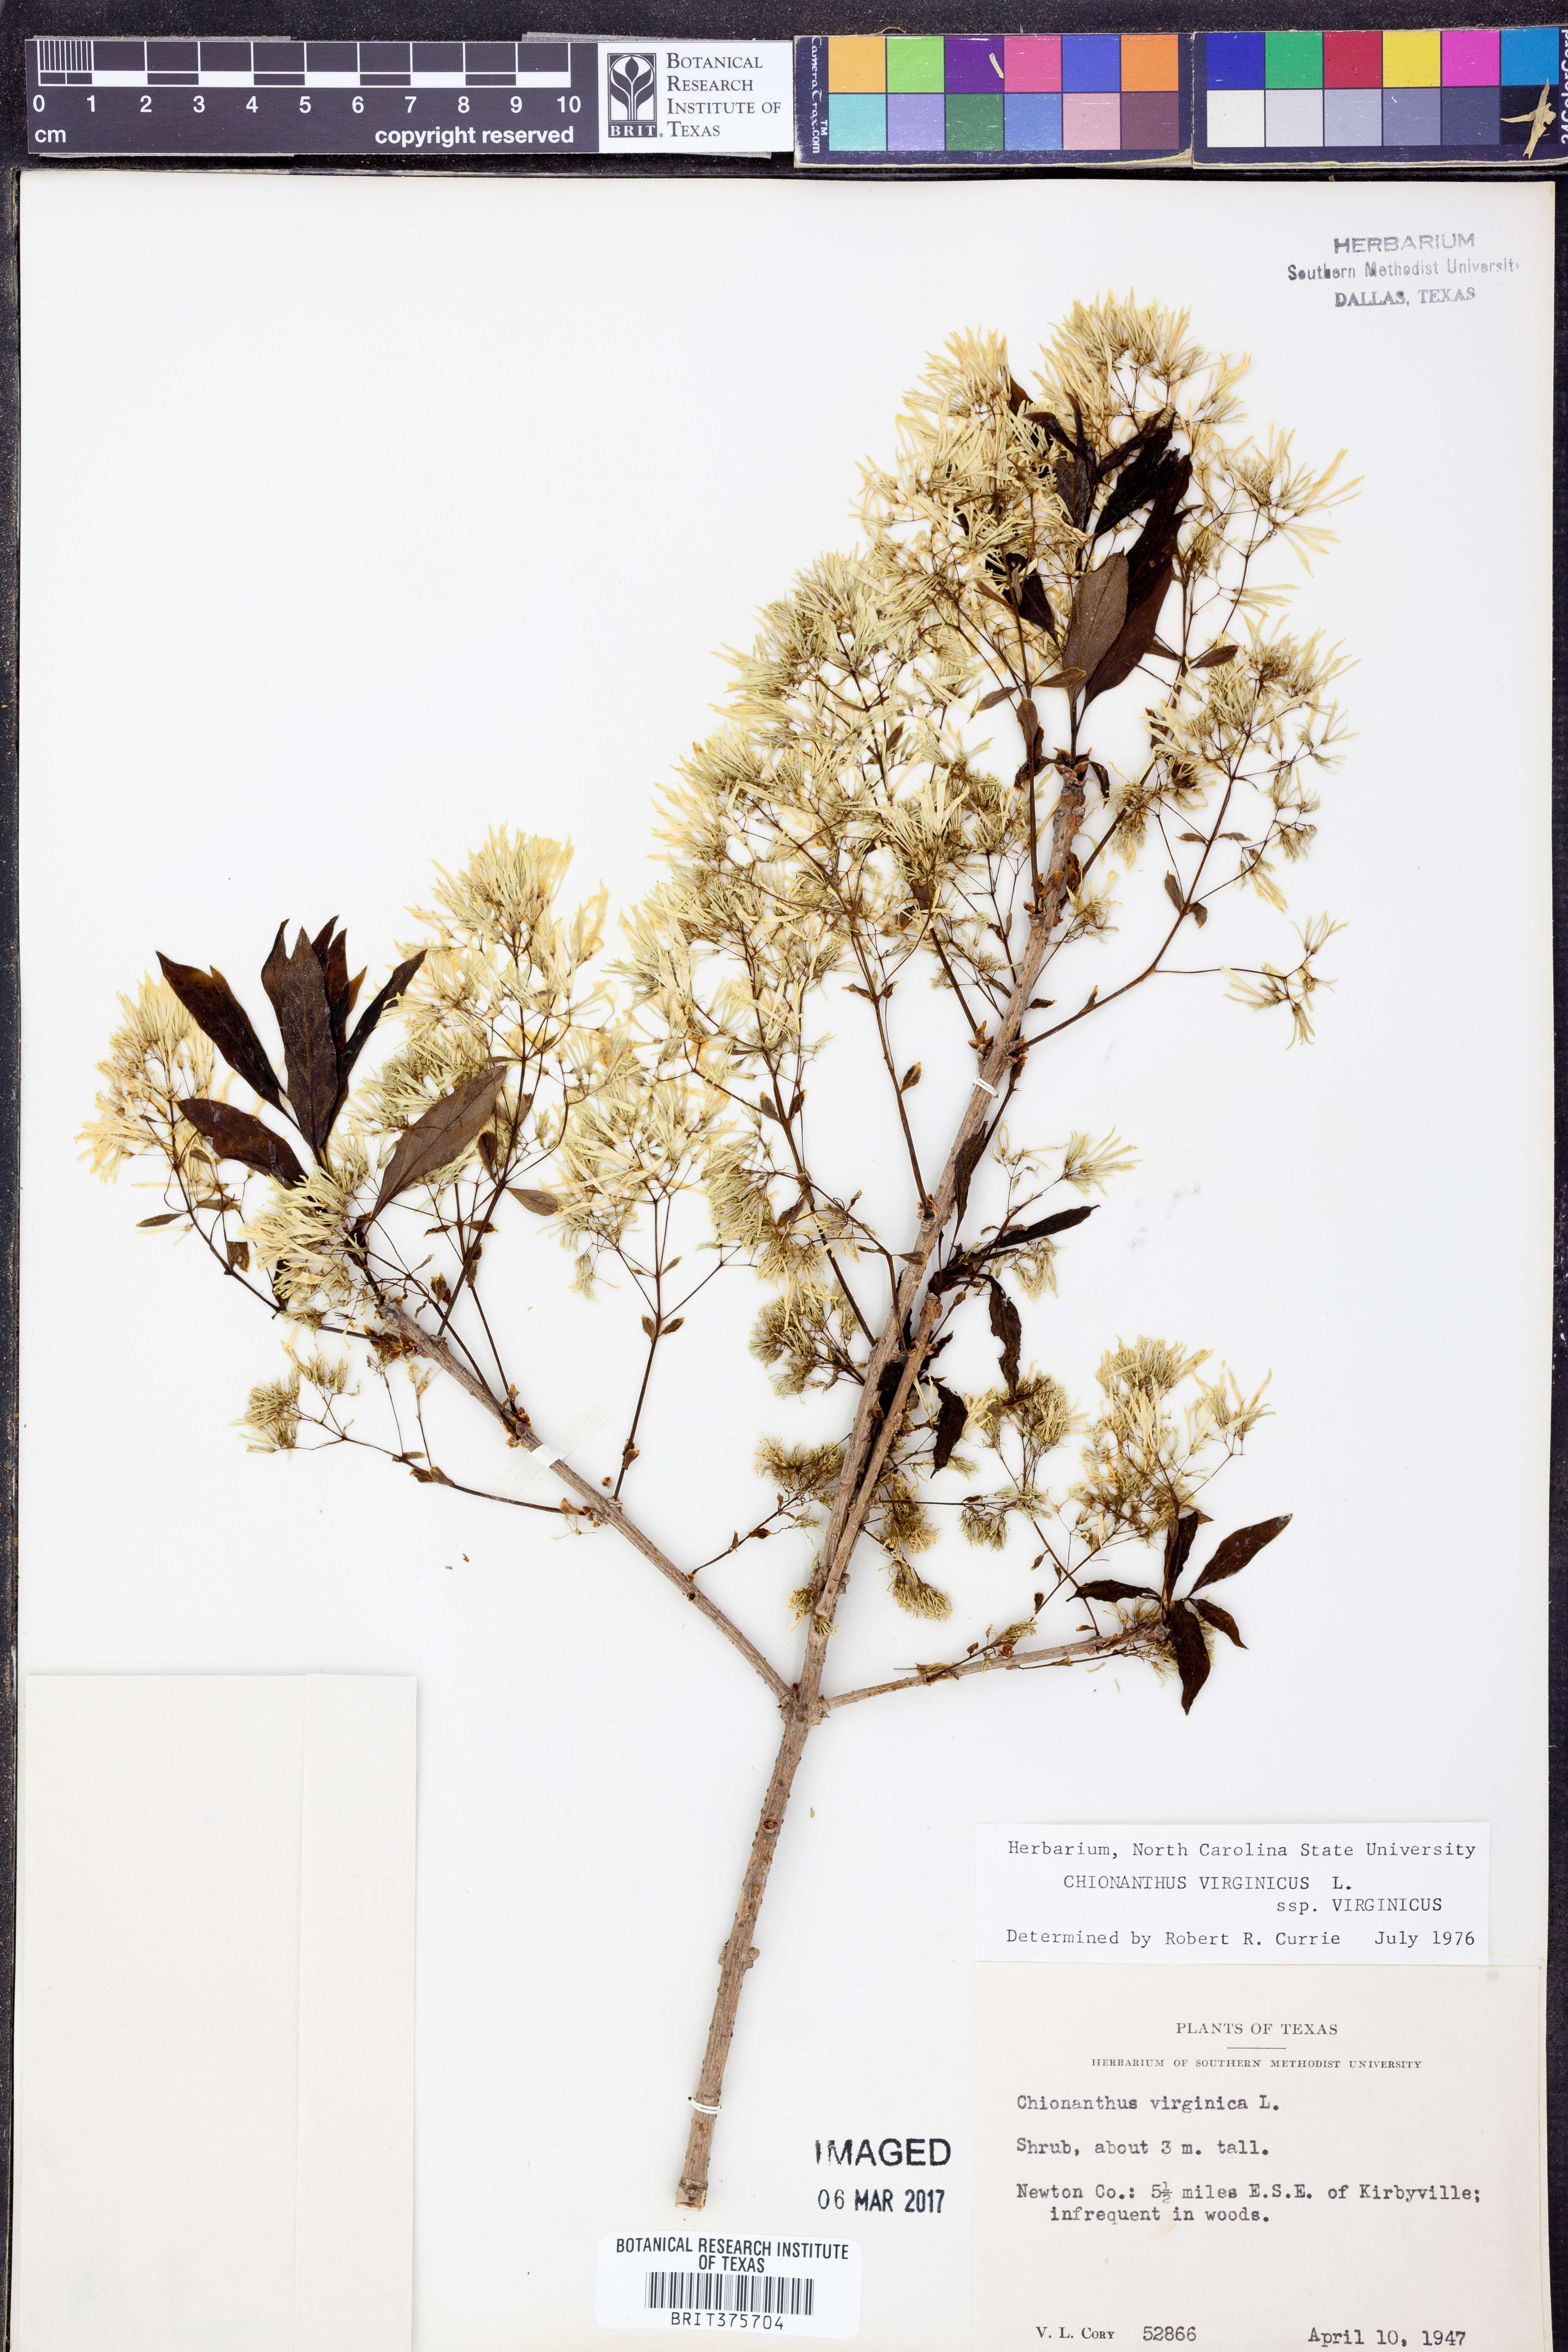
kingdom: Plantae
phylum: Tracheophyta
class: Magnoliopsida
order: Lamiales
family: Oleaceae
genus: Chionanthus
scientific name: Chionanthus virginicus
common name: American fringetree
